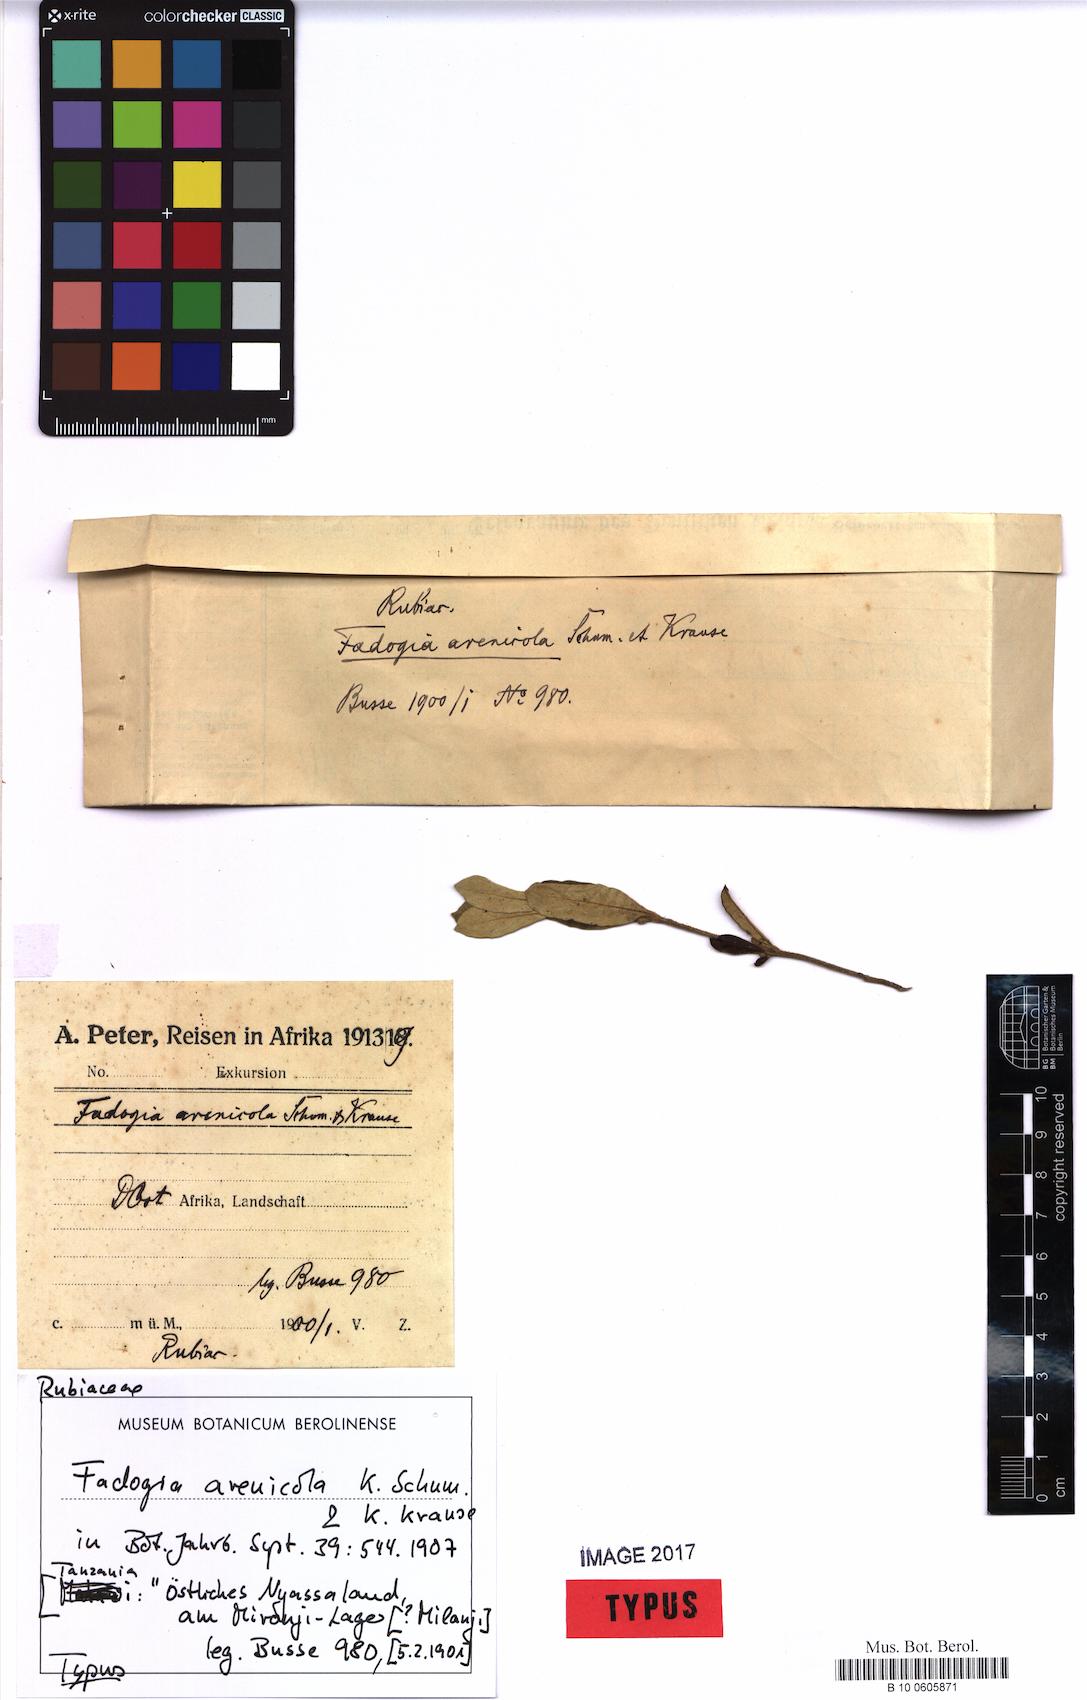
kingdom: Plantae
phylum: Tracheophyta
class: Magnoliopsida
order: Gentianales
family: Rubiaceae
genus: Fadogia
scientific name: Fadogia arenicola
